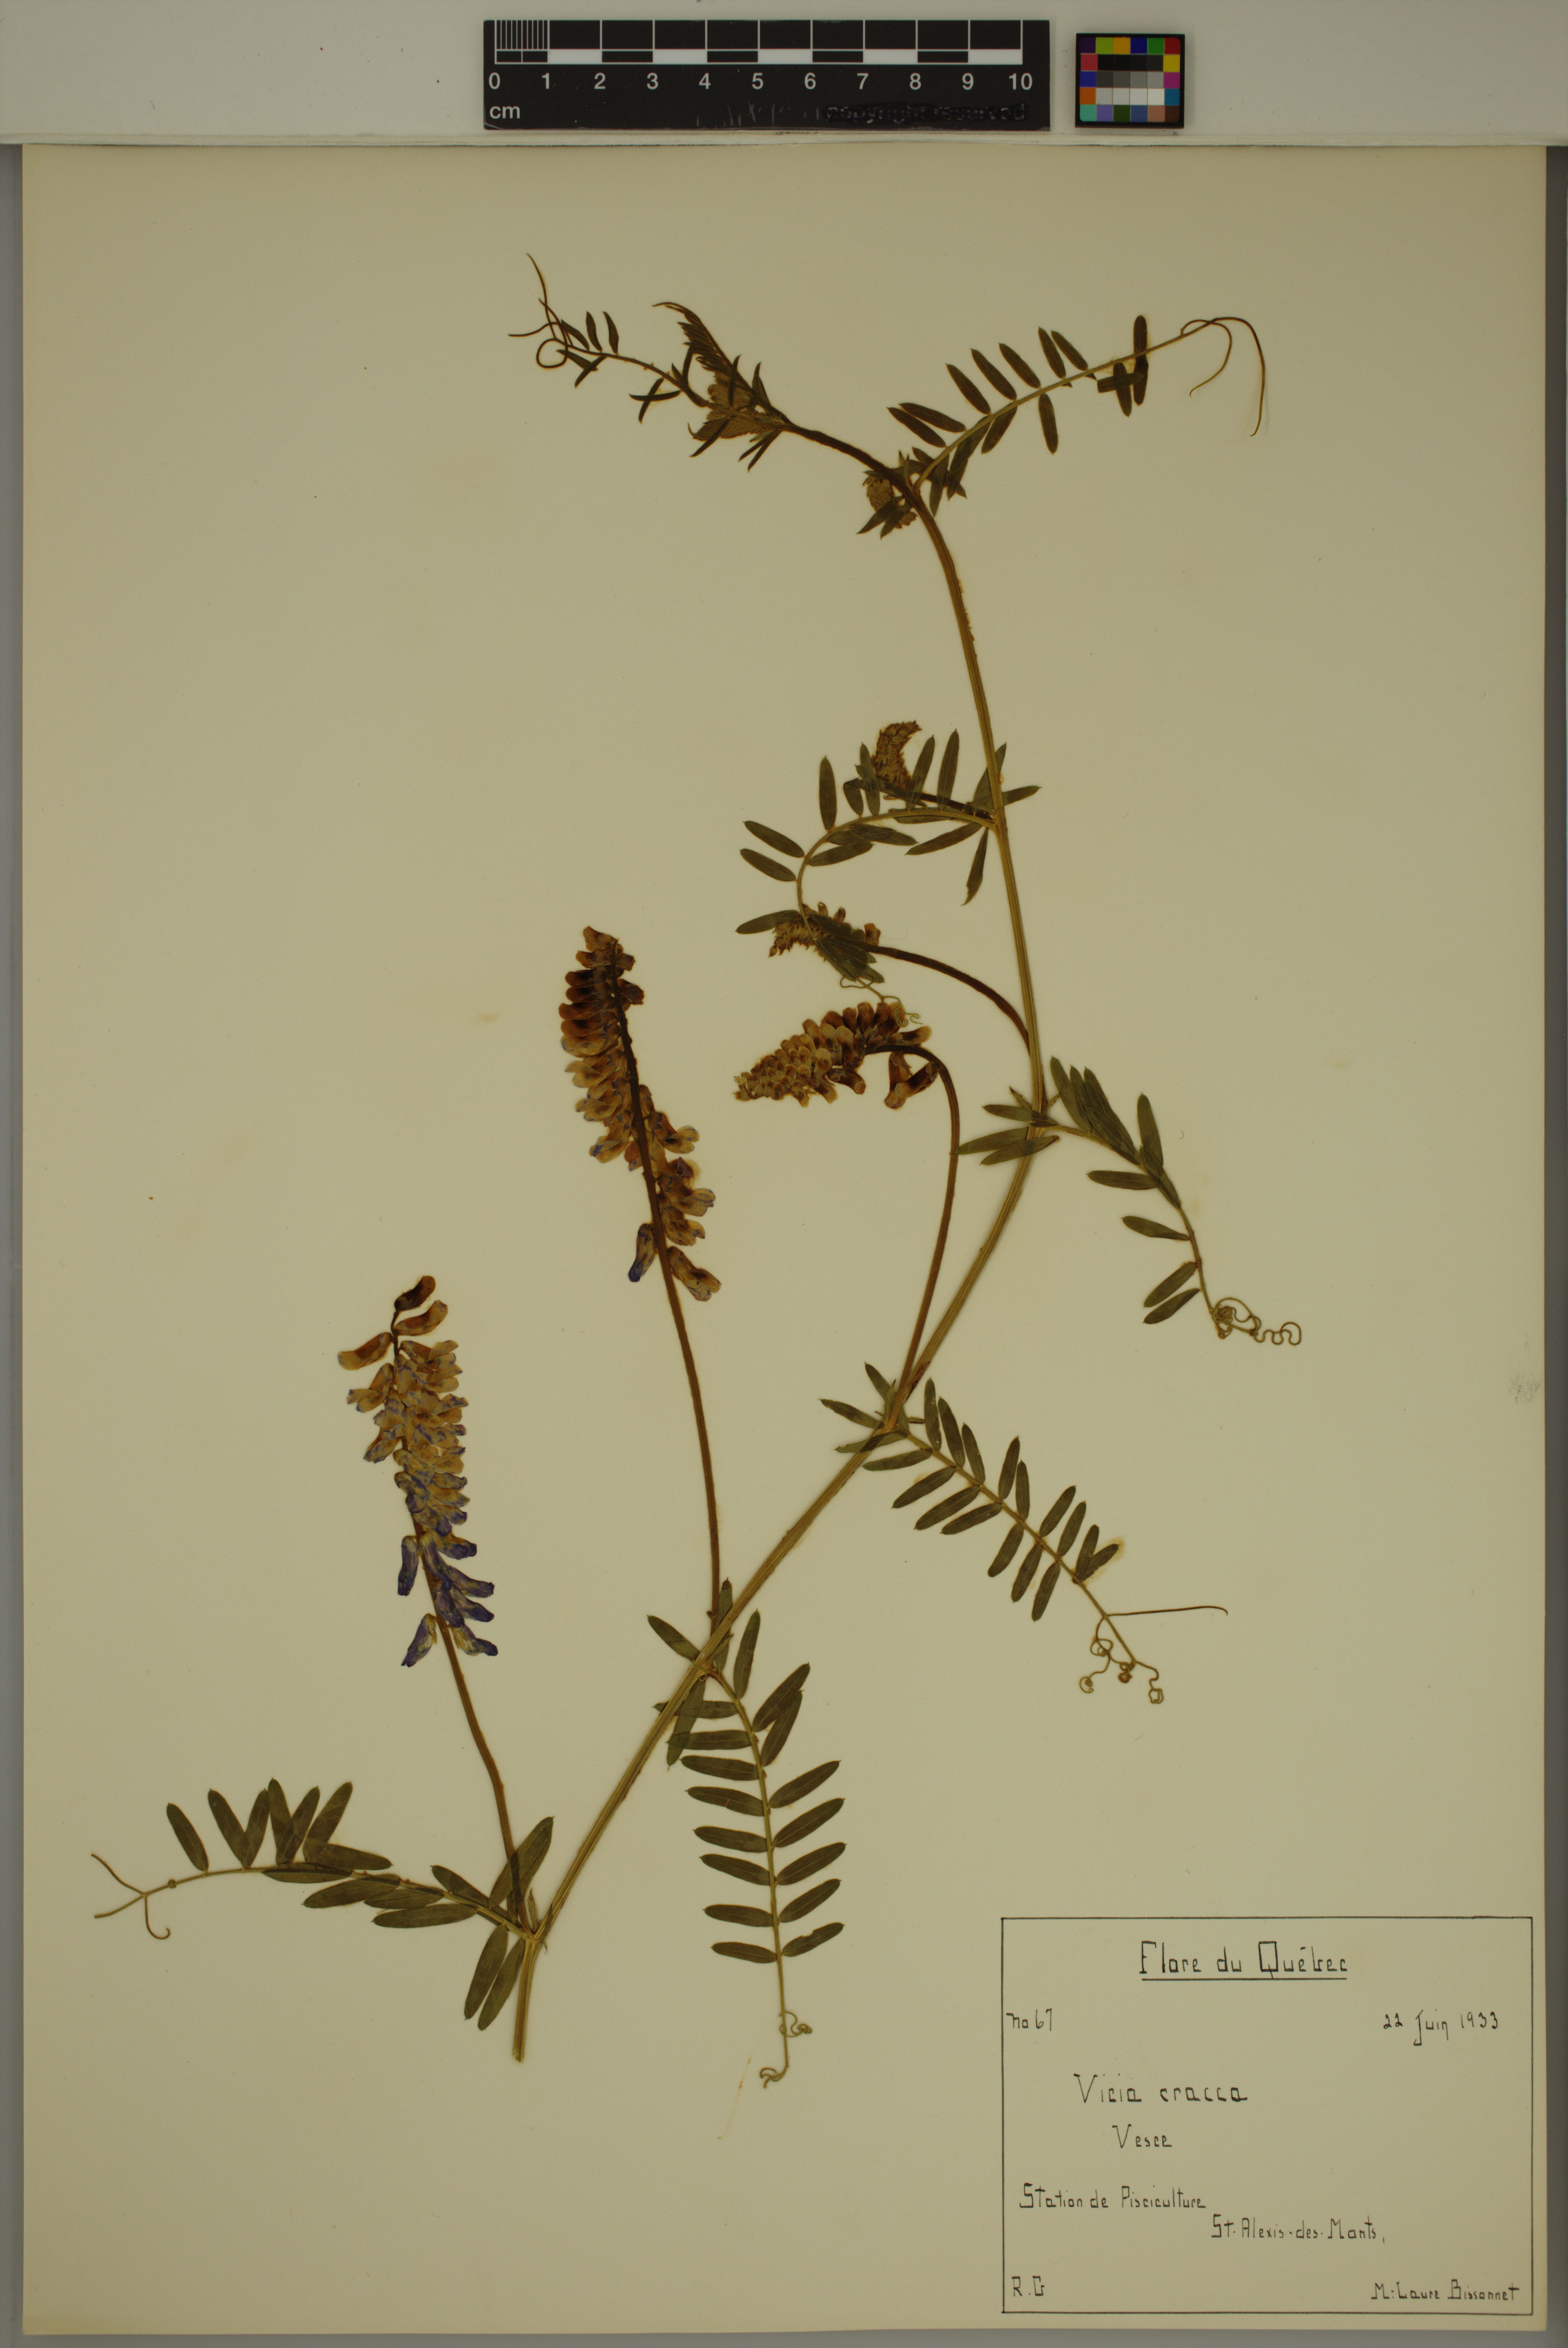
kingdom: Plantae
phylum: Tracheophyta
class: Magnoliopsida
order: Fabales
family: Fabaceae
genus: Vicia
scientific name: Vicia cracca
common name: Bird vetch
